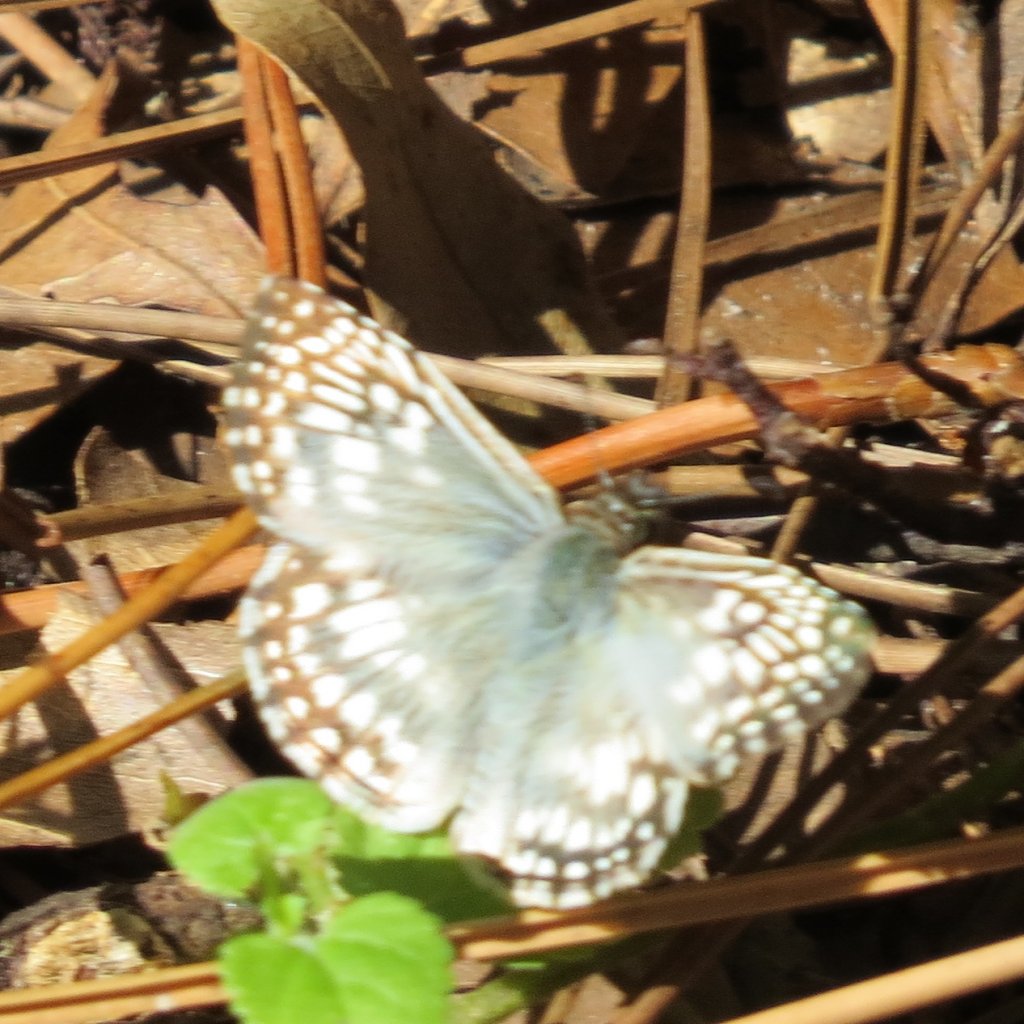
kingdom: Animalia
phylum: Arthropoda
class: Insecta
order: Lepidoptera
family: Hesperiidae
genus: Pyrgus
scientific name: Pyrgus oileus
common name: Tropical Checkered-Skipper
